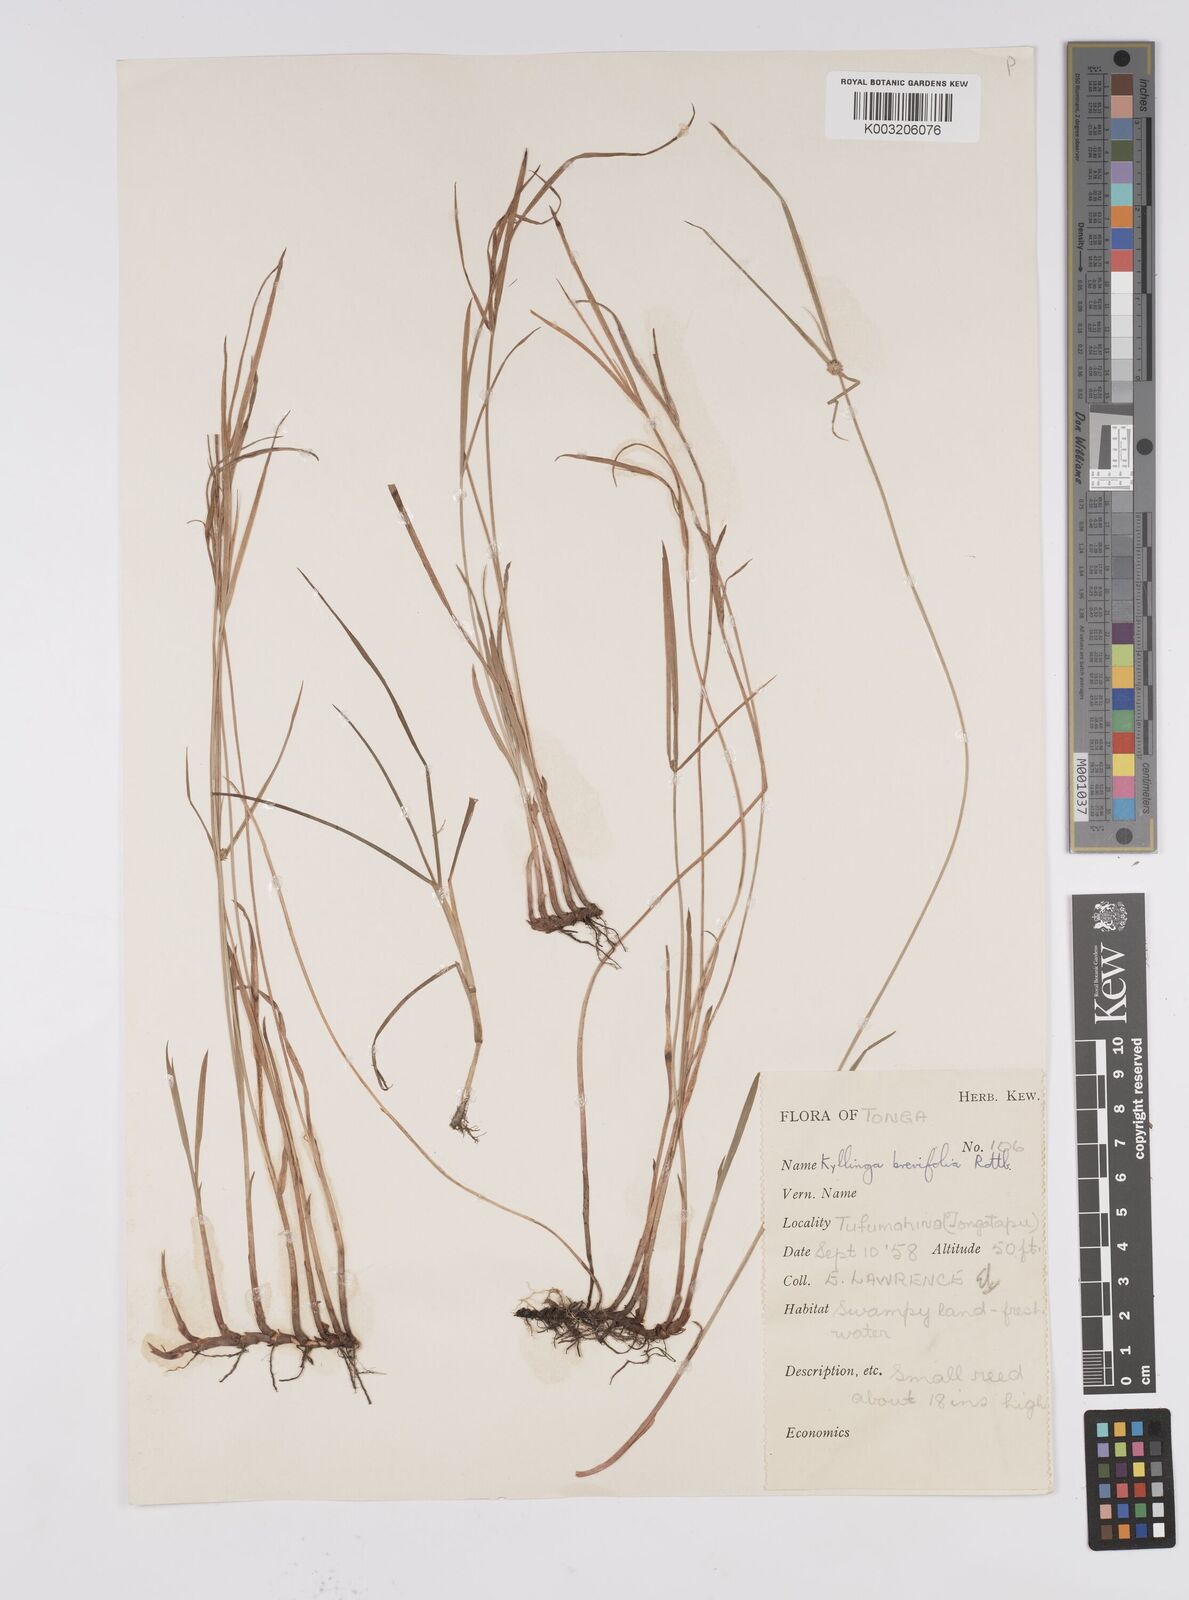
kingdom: Plantae
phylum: Tracheophyta
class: Liliopsida
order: Poales
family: Cyperaceae
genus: Cyperus
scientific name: Cyperus brevifolius
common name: Globe kyllinga
